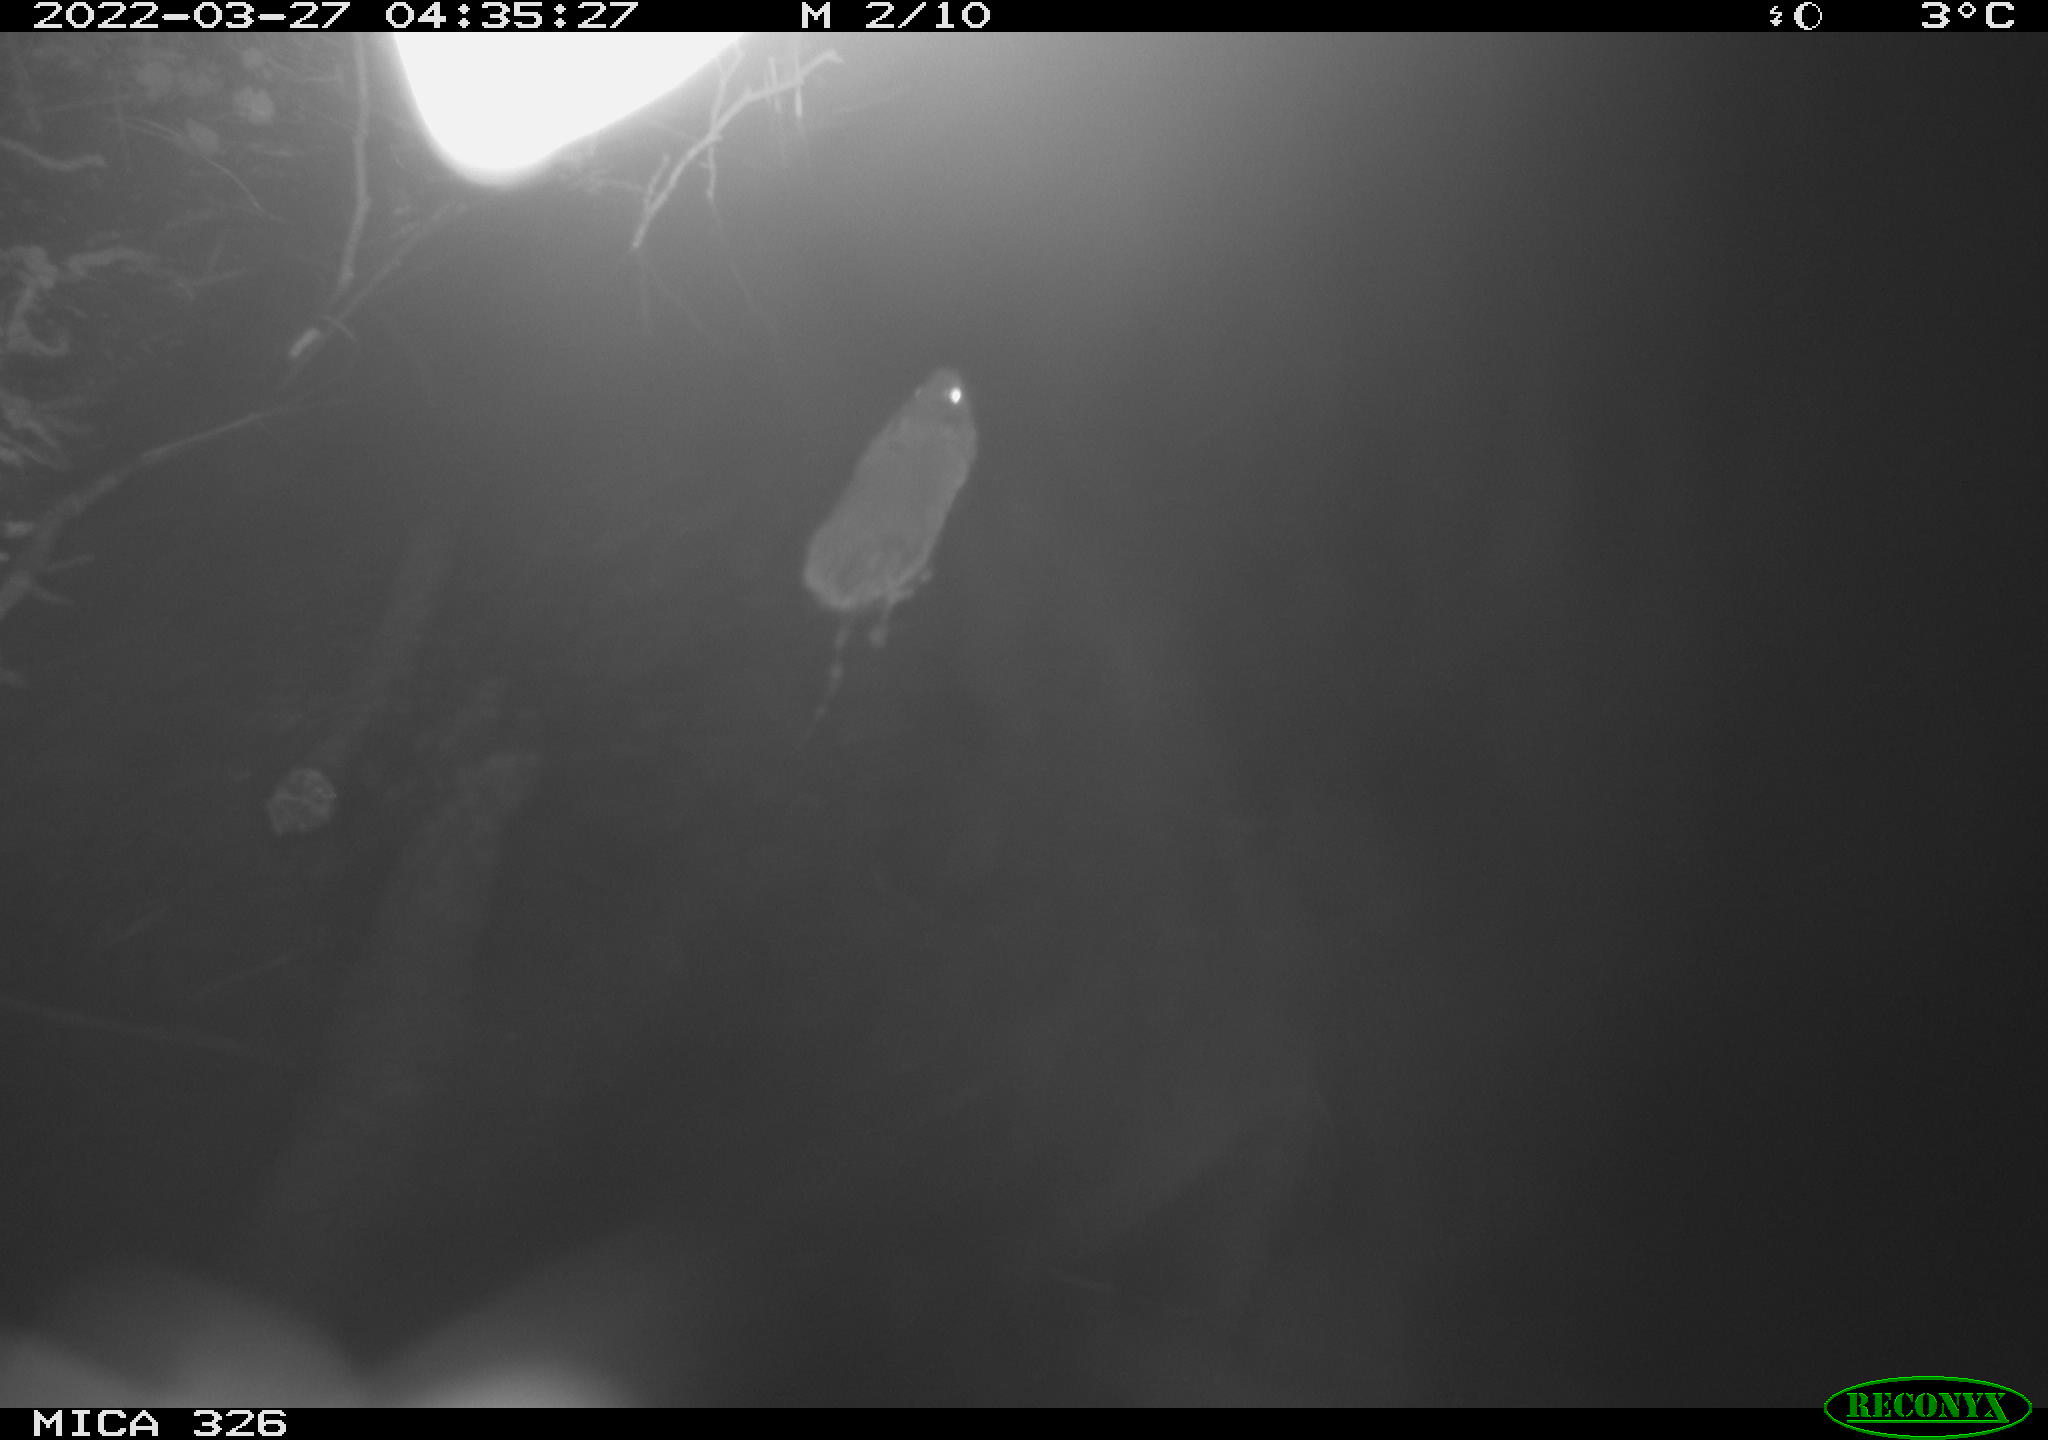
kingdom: Animalia
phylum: Chordata
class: Mammalia
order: Rodentia
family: Muridae
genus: Rattus
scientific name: Rattus norvegicus
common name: Brown rat
